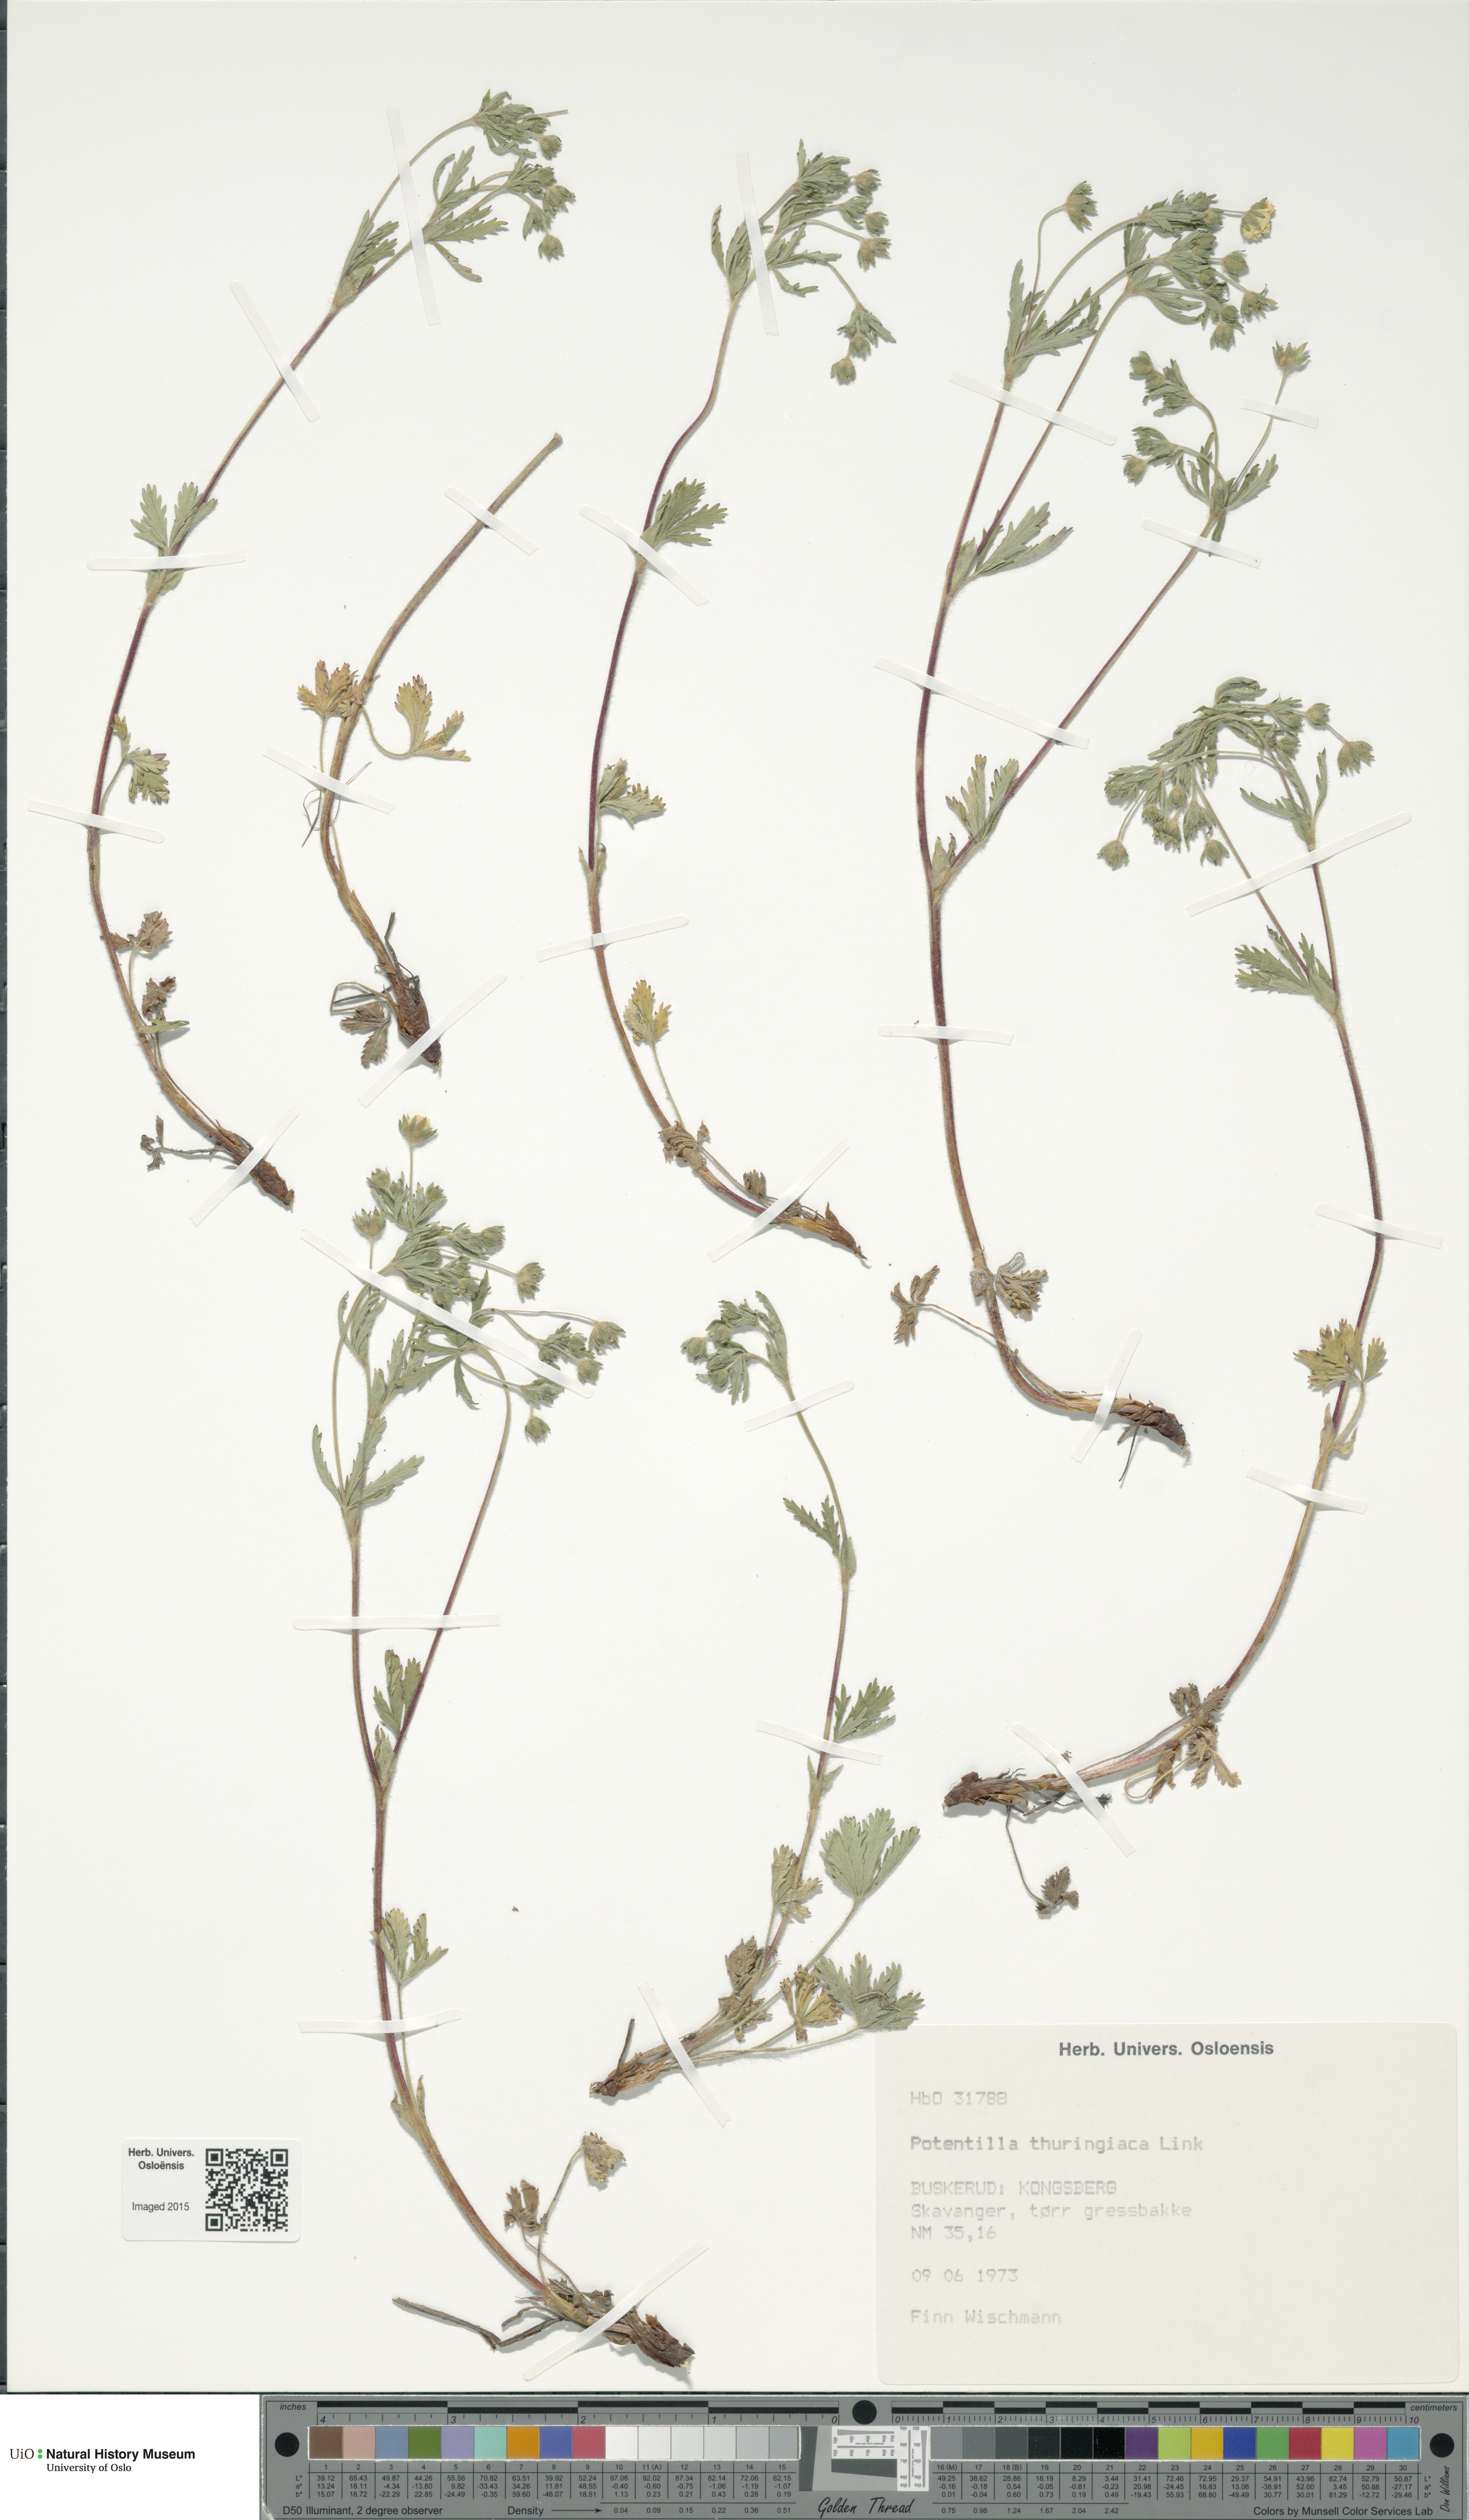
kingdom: Plantae
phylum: Tracheophyta
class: Magnoliopsida
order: Rosales
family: Rosaceae
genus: Potentilla
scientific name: Potentilla thuringiaca
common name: European cinquefoil
